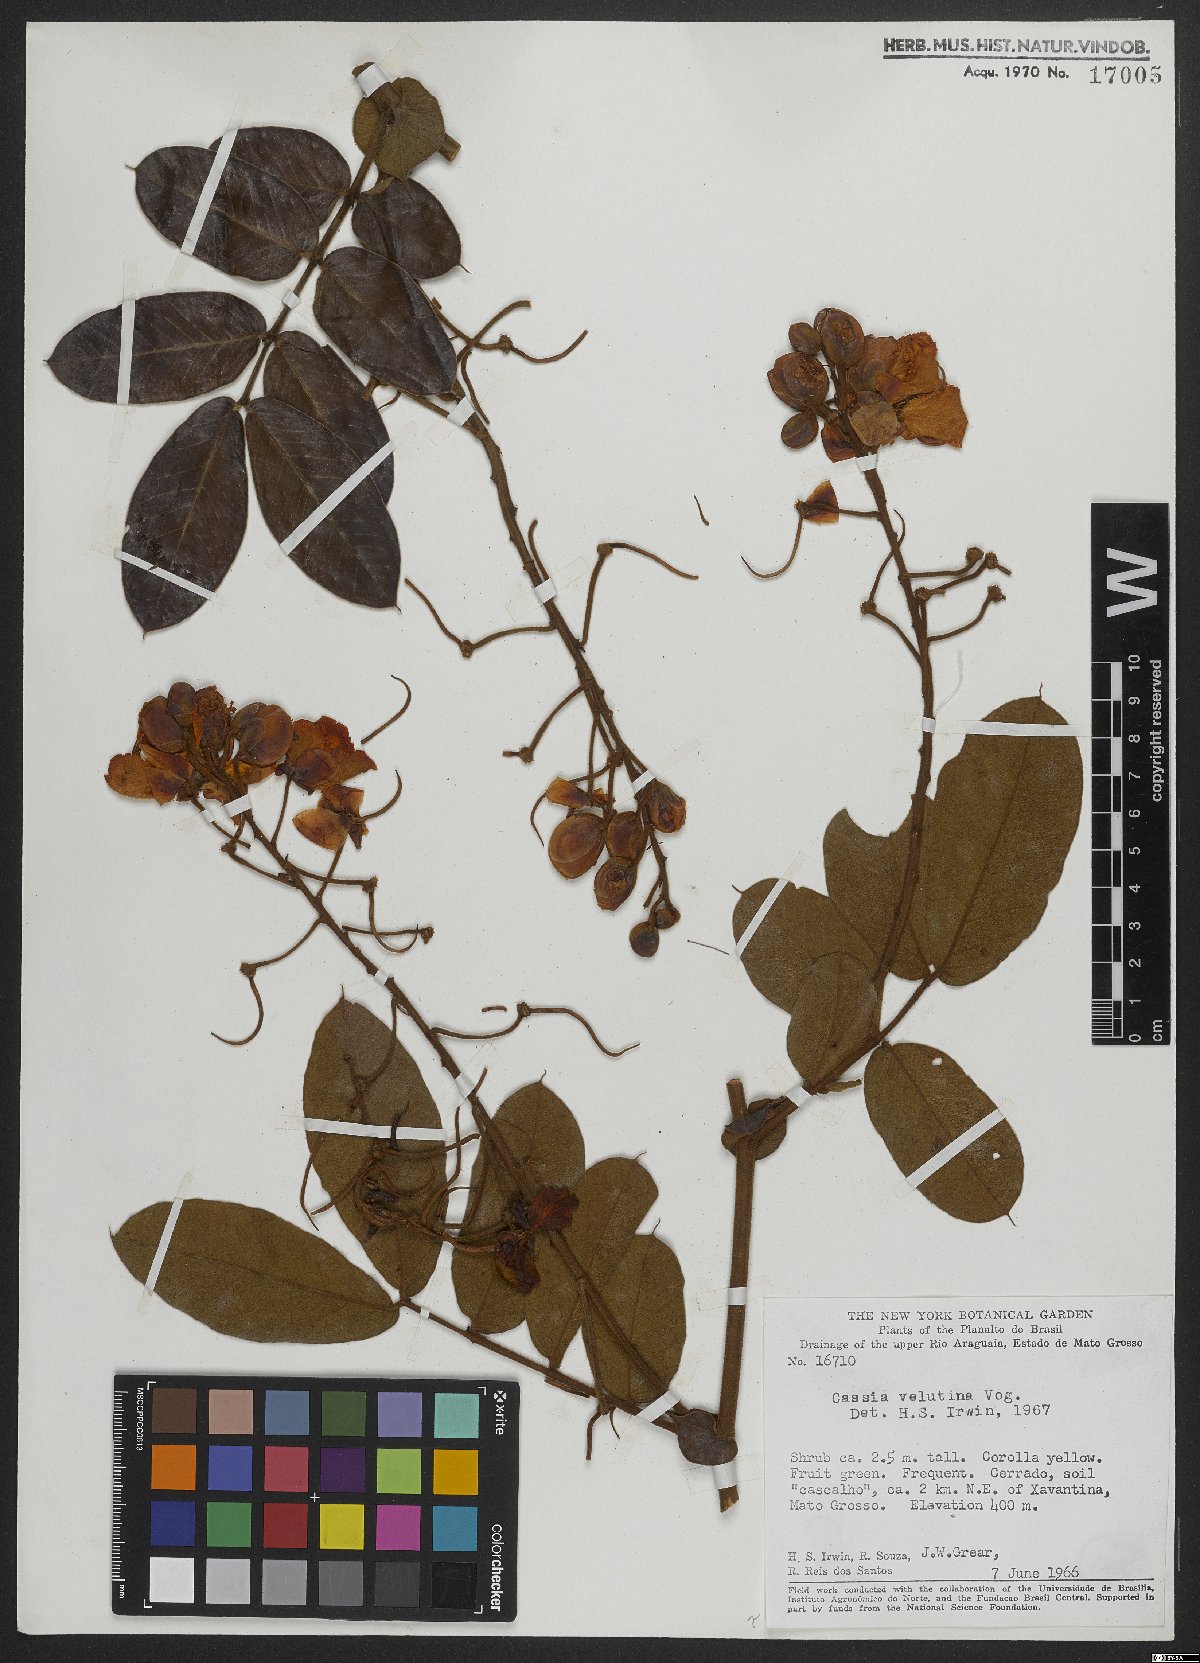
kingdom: Plantae
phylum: Tracheophyta
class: Magnoliopsida
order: Fabales
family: Fabaceae
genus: Senna
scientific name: Senna velutina
